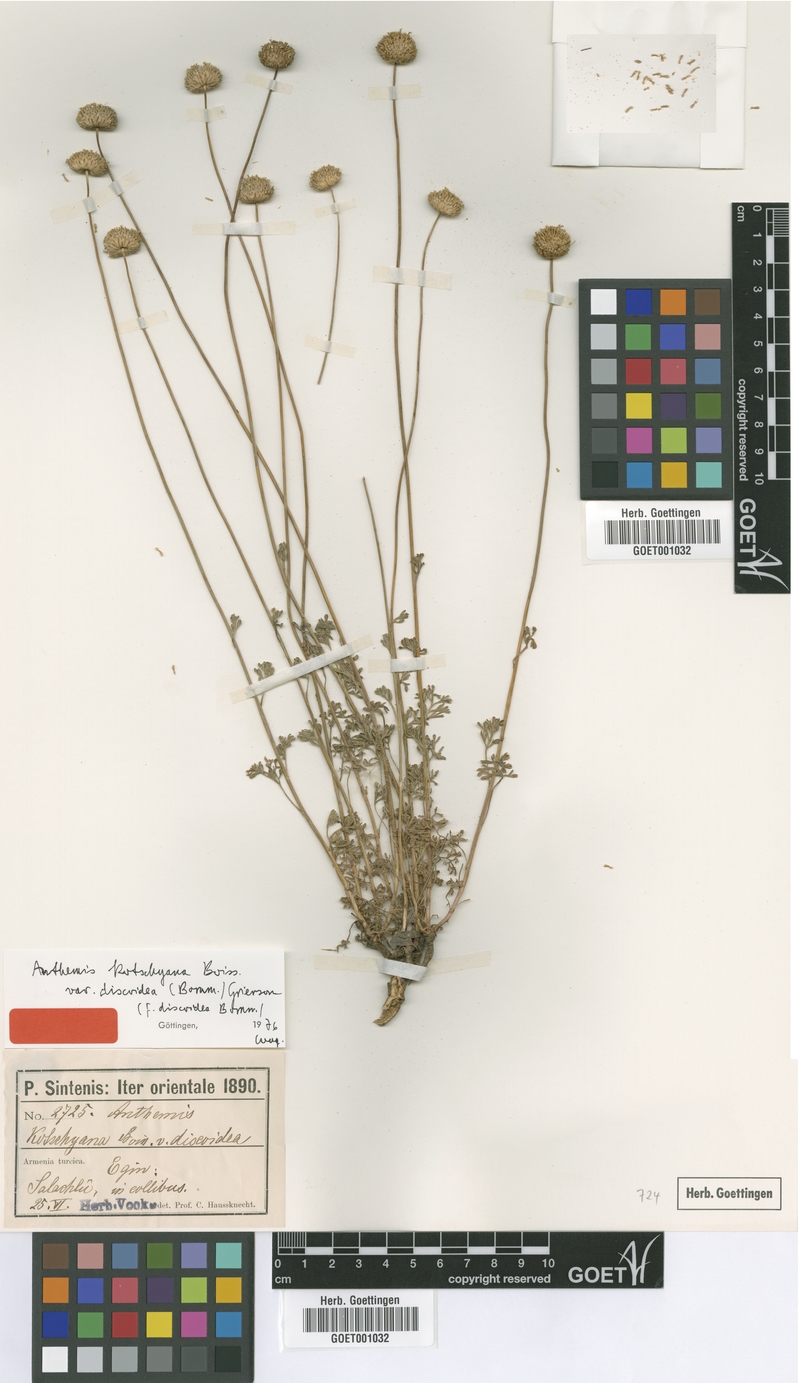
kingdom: Plantae
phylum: Tracheophyta
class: Magnoliopsida
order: Asterales
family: Asteraceae
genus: Anthemis
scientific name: Anthemis kotschyana
